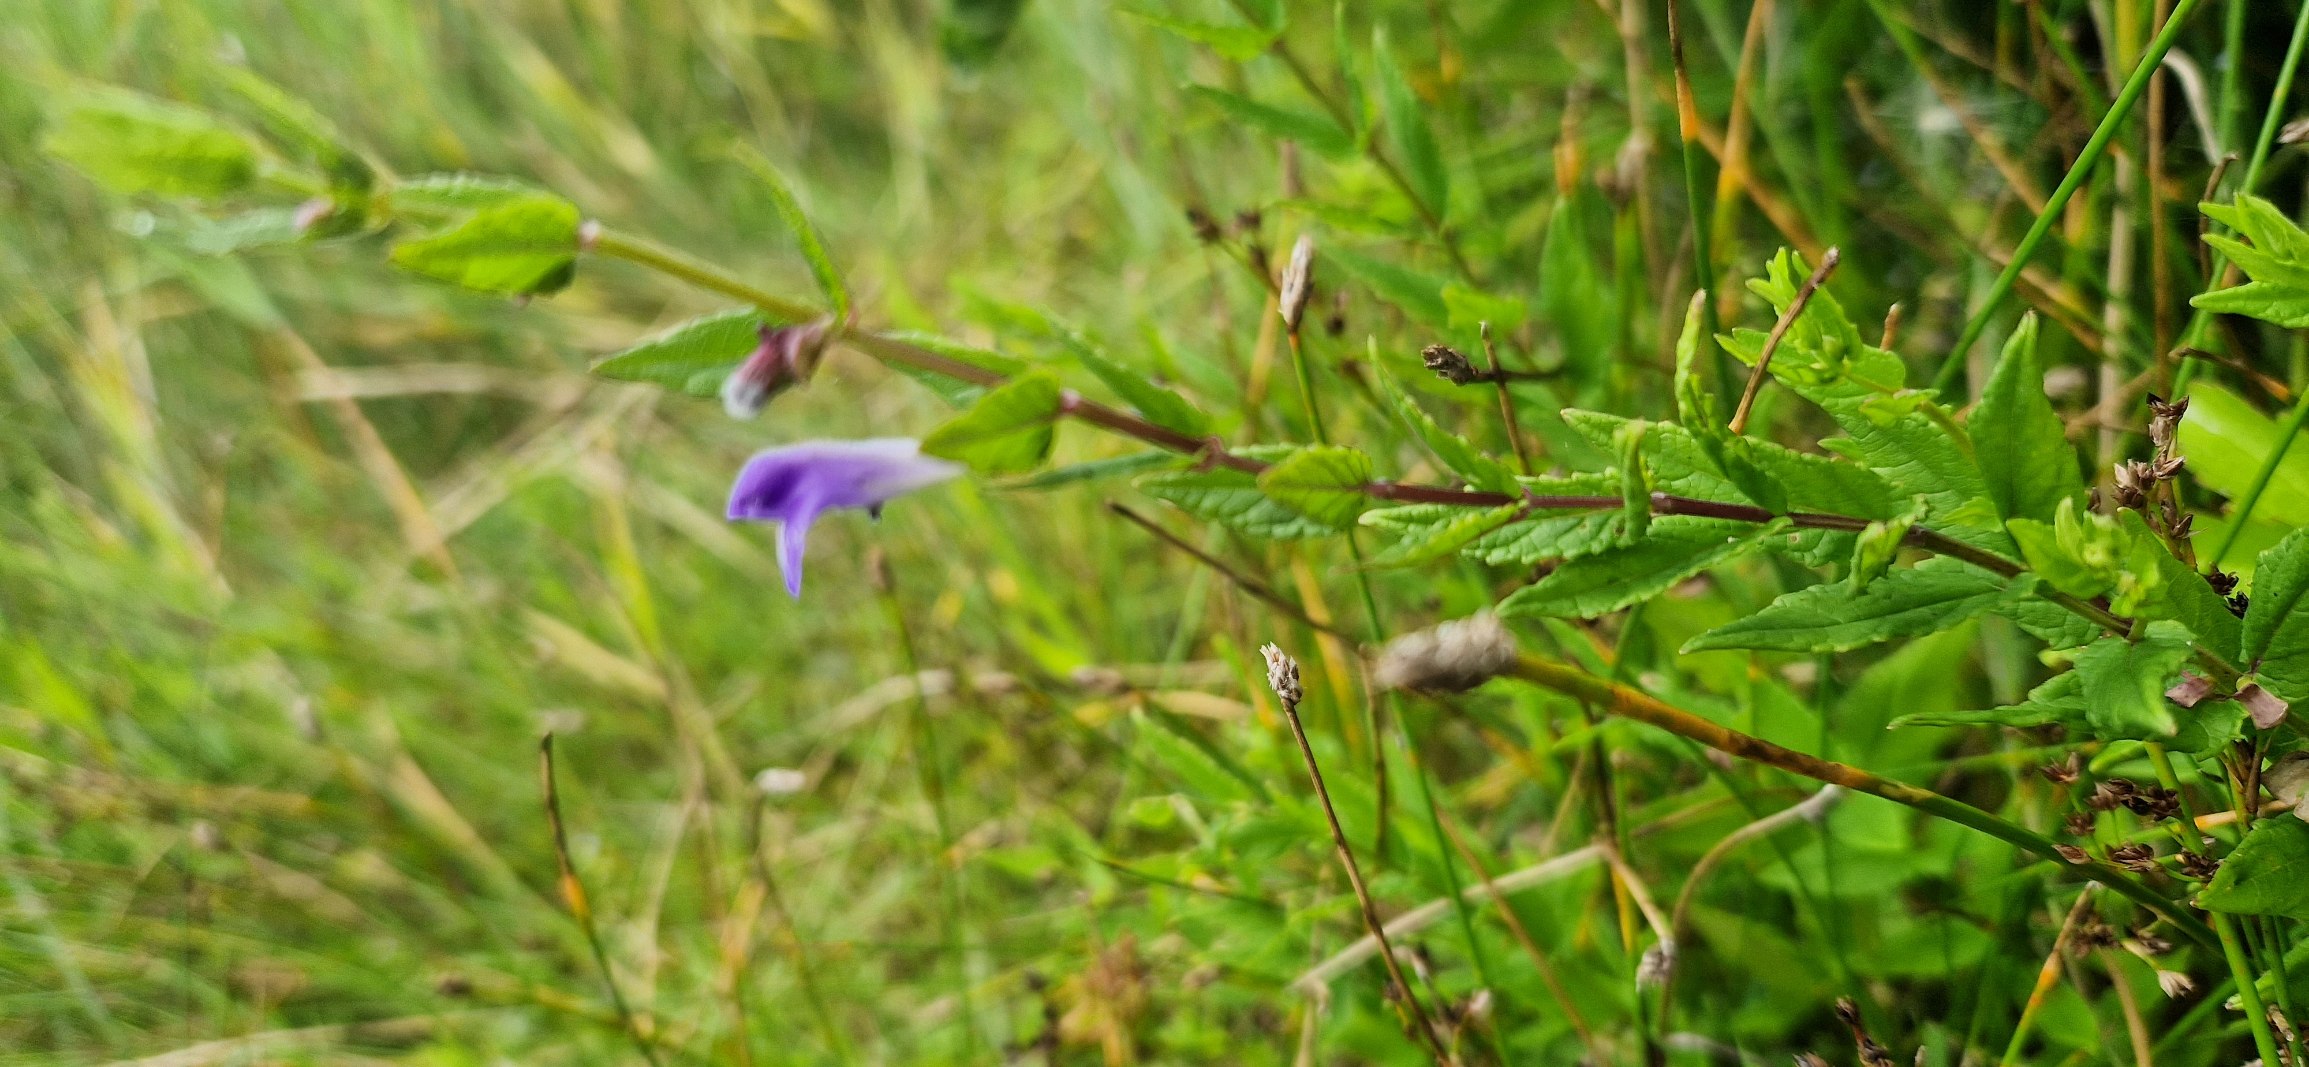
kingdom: Plantae
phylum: Tracheophyta
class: Magnoliopsida
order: Lamiales
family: Lamiaceae
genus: Scutellaria
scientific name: Scutellaria galericulata
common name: Almindelig skjolddrager
